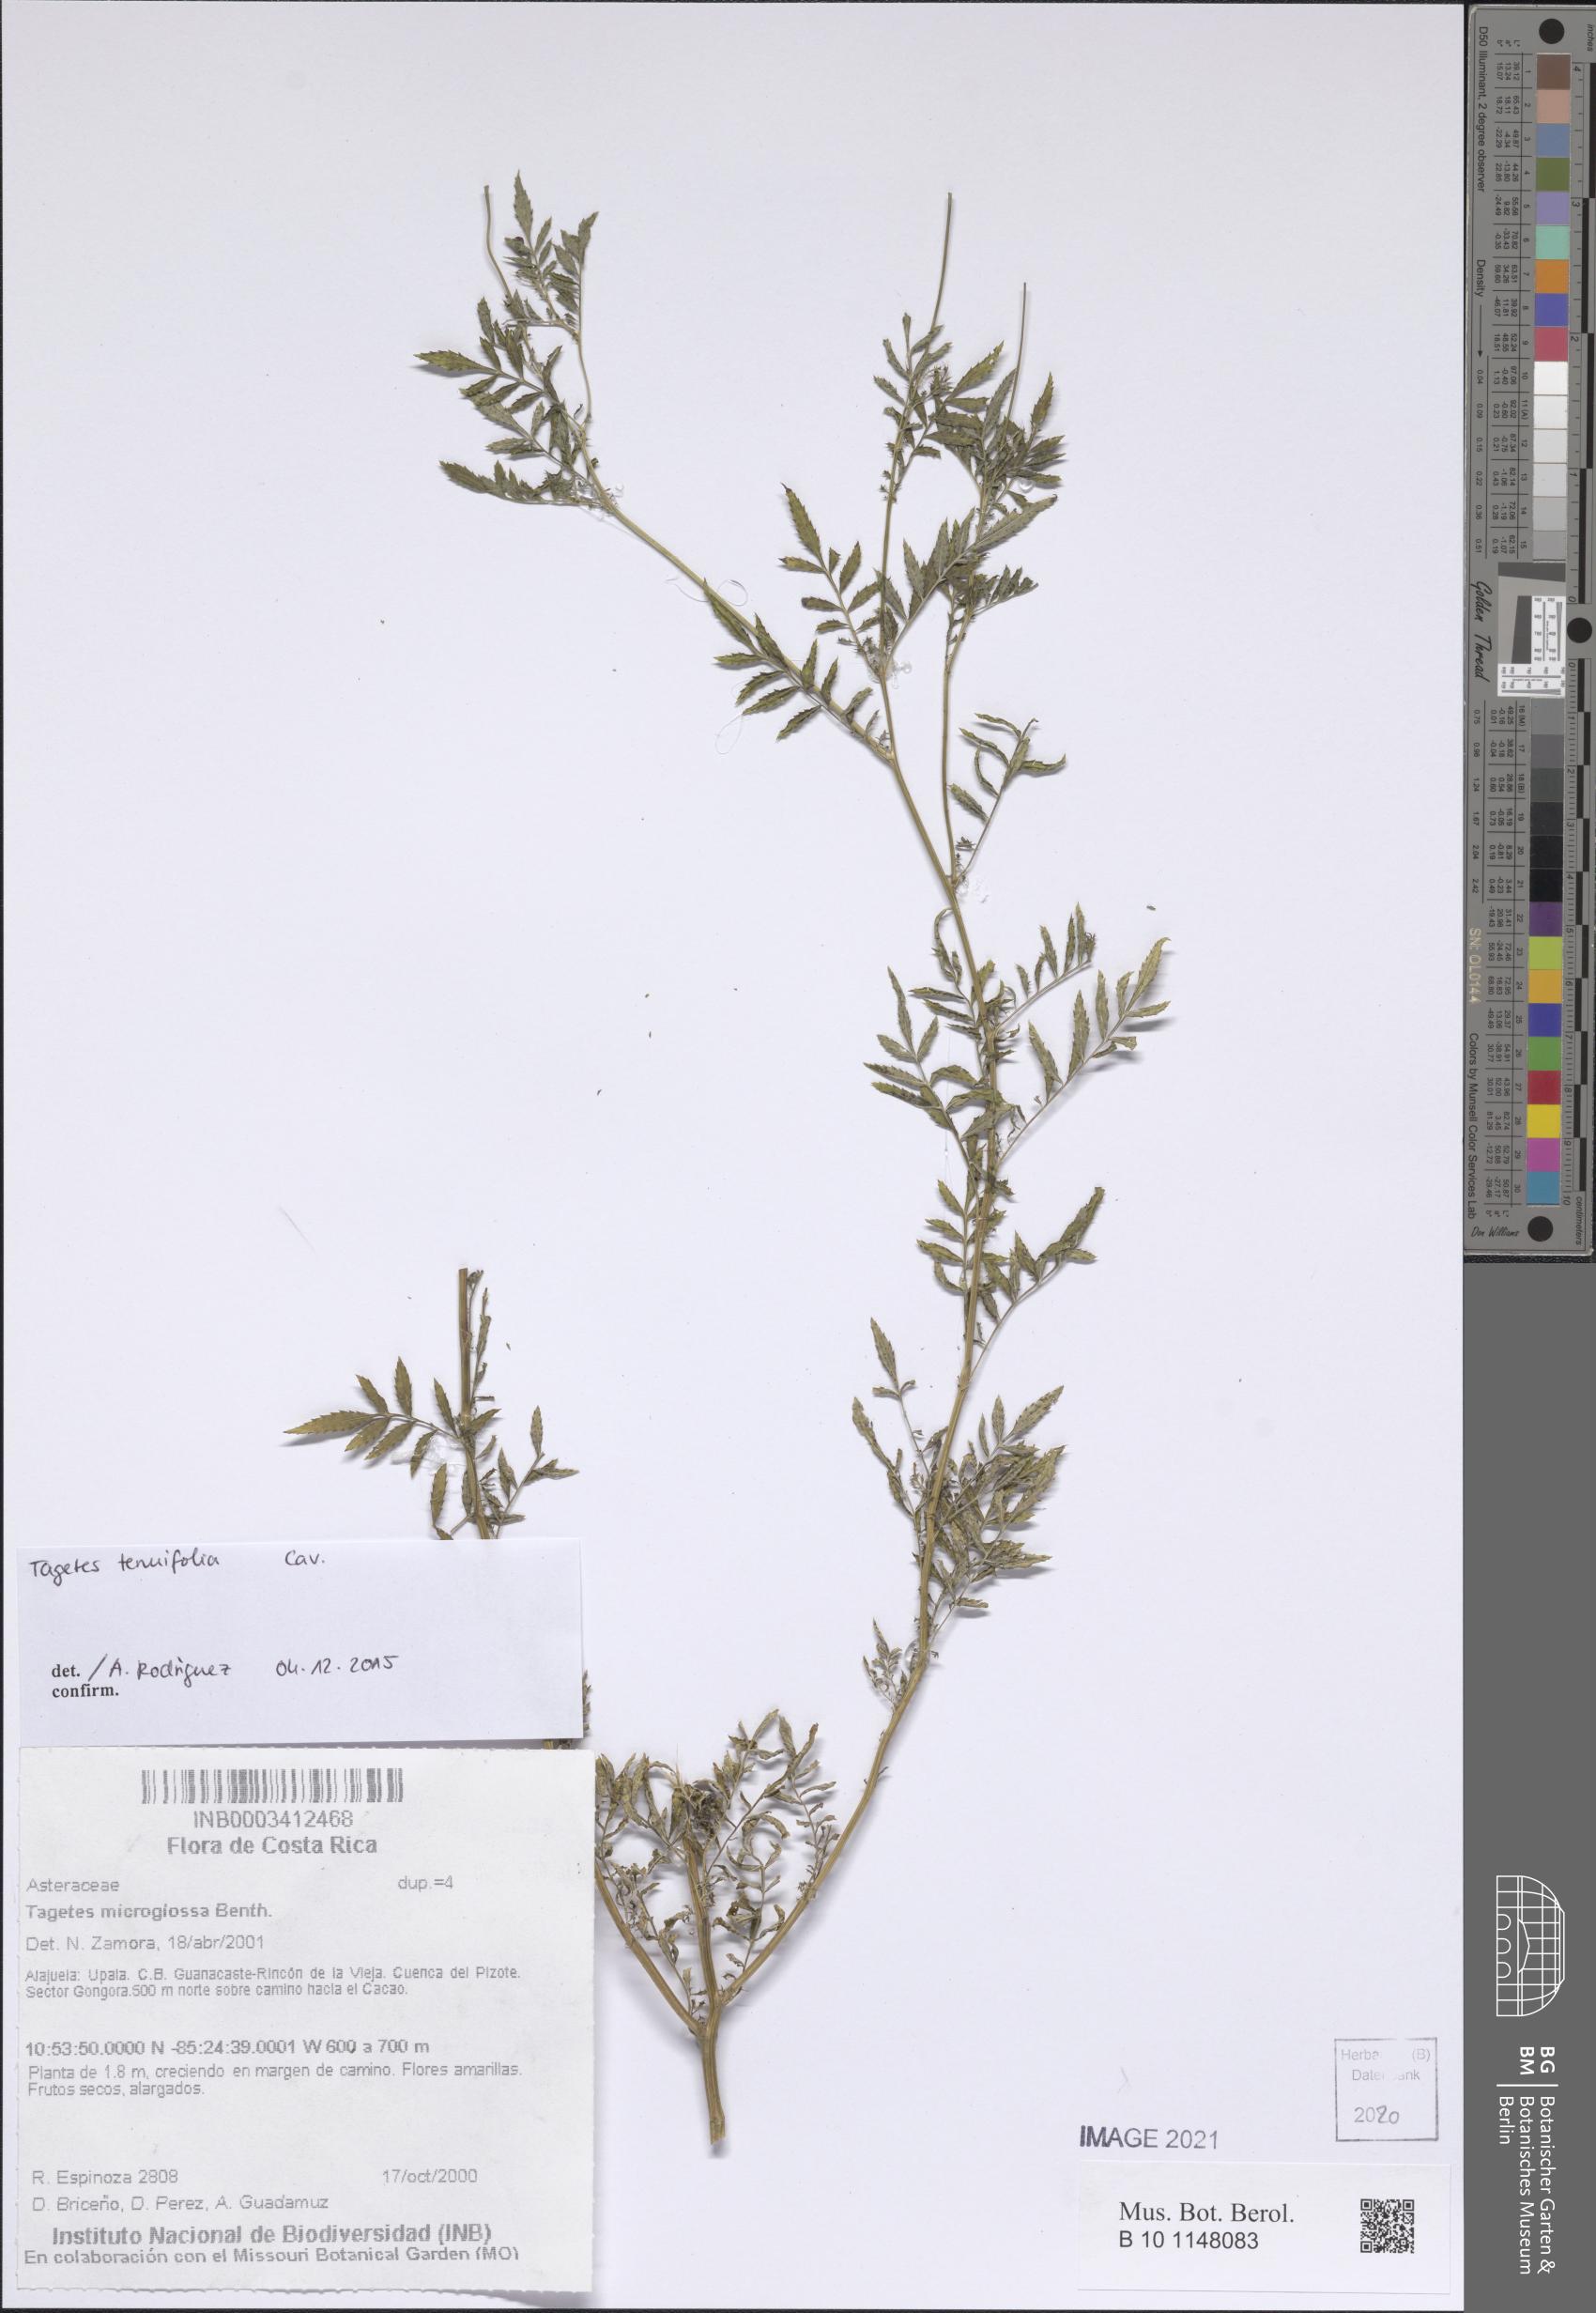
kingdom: Plantae
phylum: Tracheophyta
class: Magnoliopsida
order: Asterales
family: Asteraceae
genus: Tagetes
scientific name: Tagetes tenuifolia
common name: Signet marigold
